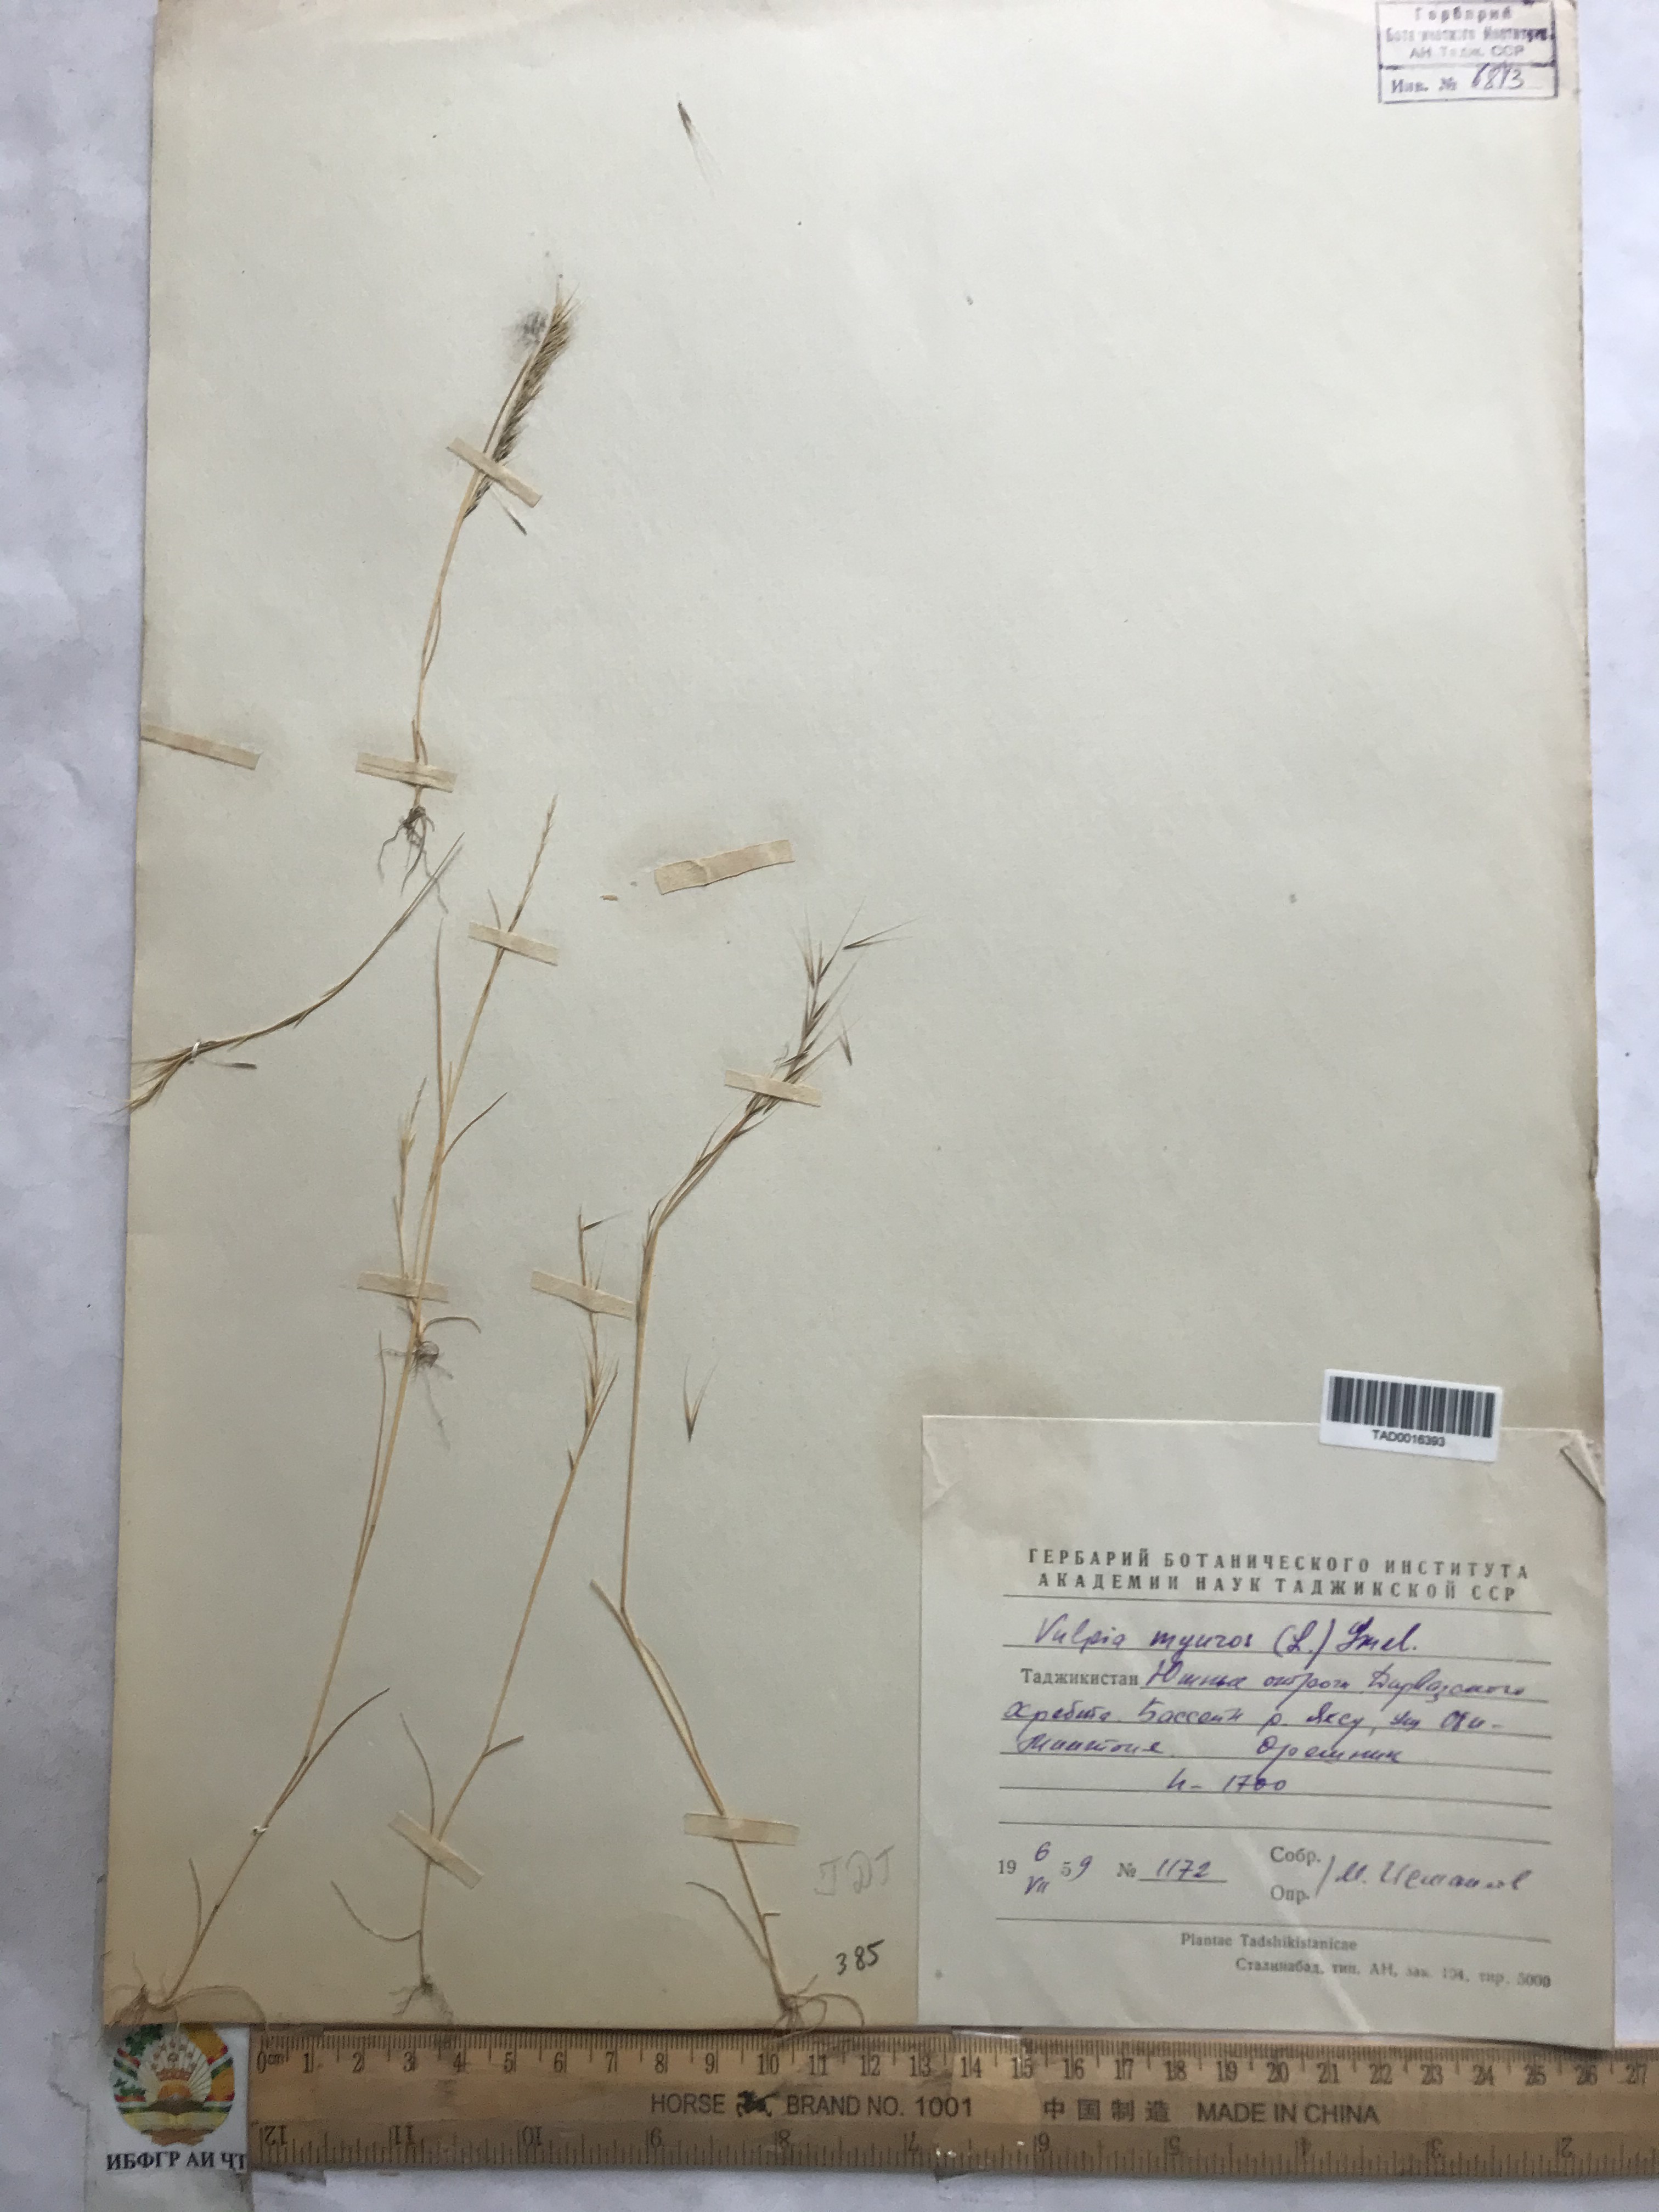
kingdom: Plantae
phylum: Tracheophyta
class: Liliopsida
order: Poales
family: Poaceae
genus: Festuca
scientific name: Festuca myuros
